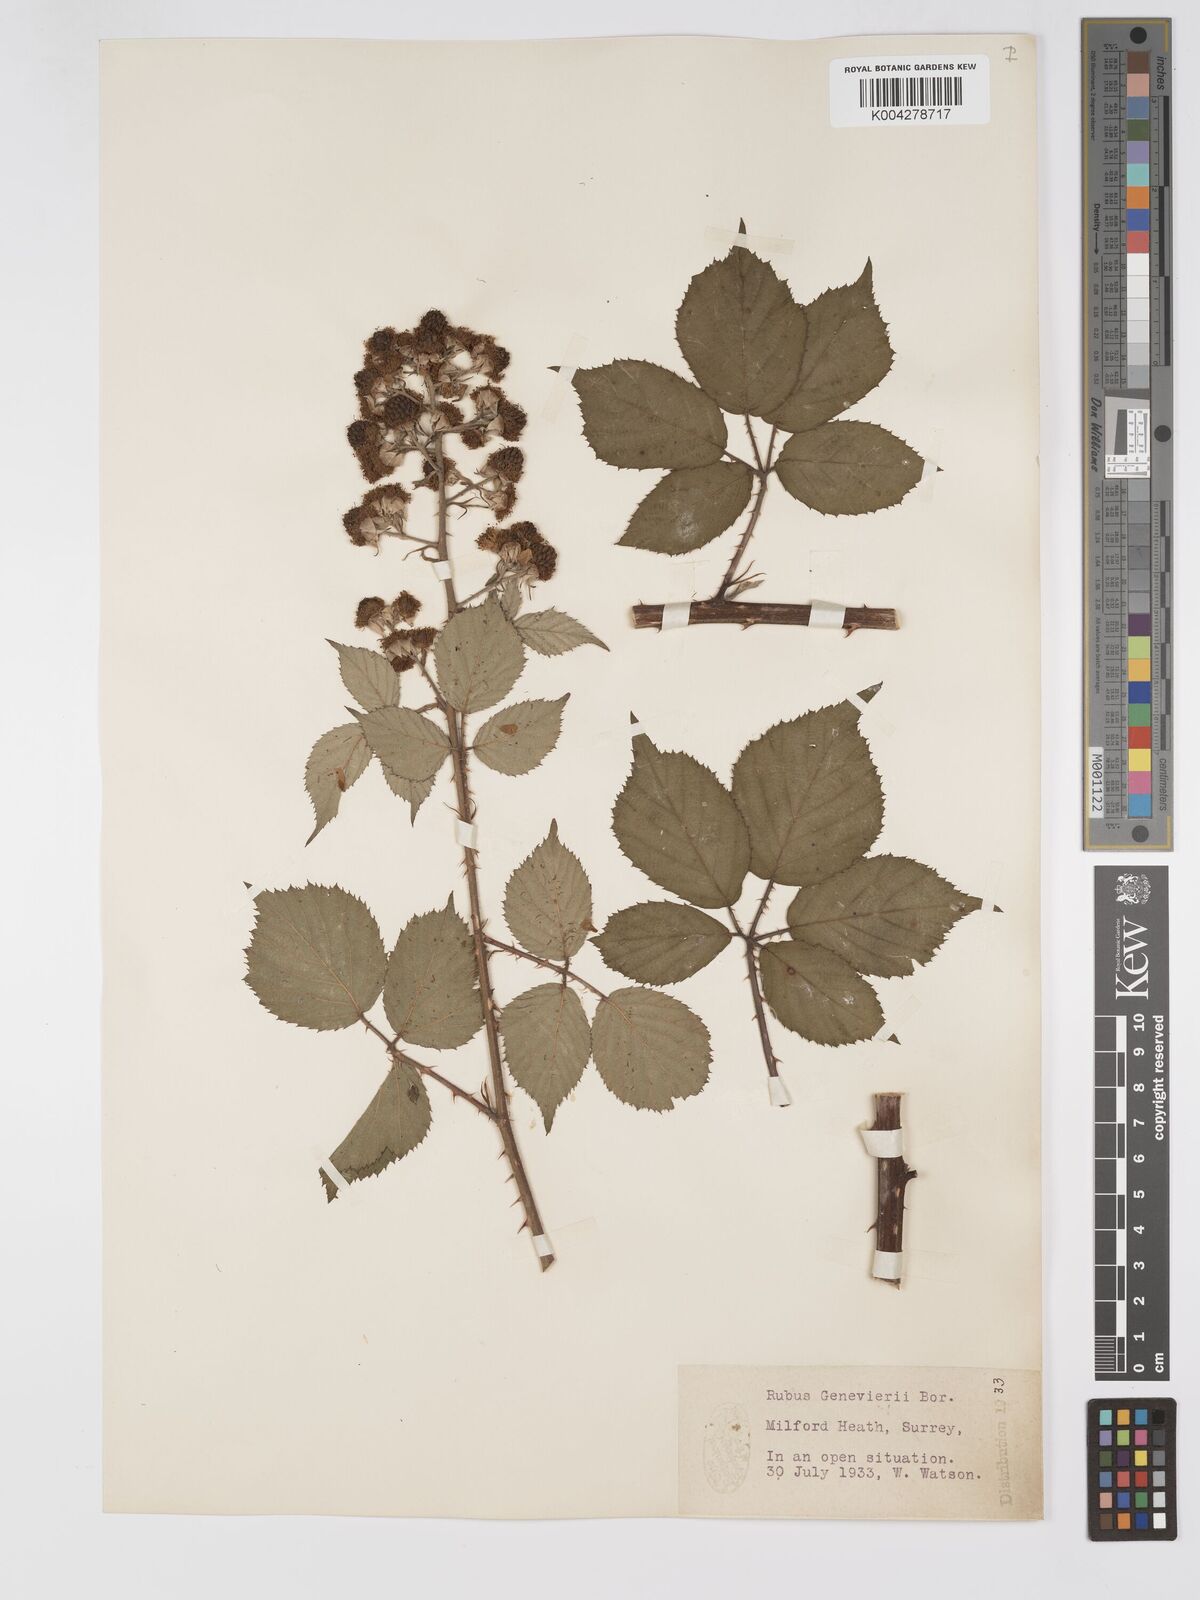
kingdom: Plantae
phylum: Tracheophyta
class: Magnoliopsida
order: Rosales
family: Rosaceae
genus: Rubus
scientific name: Rubus
